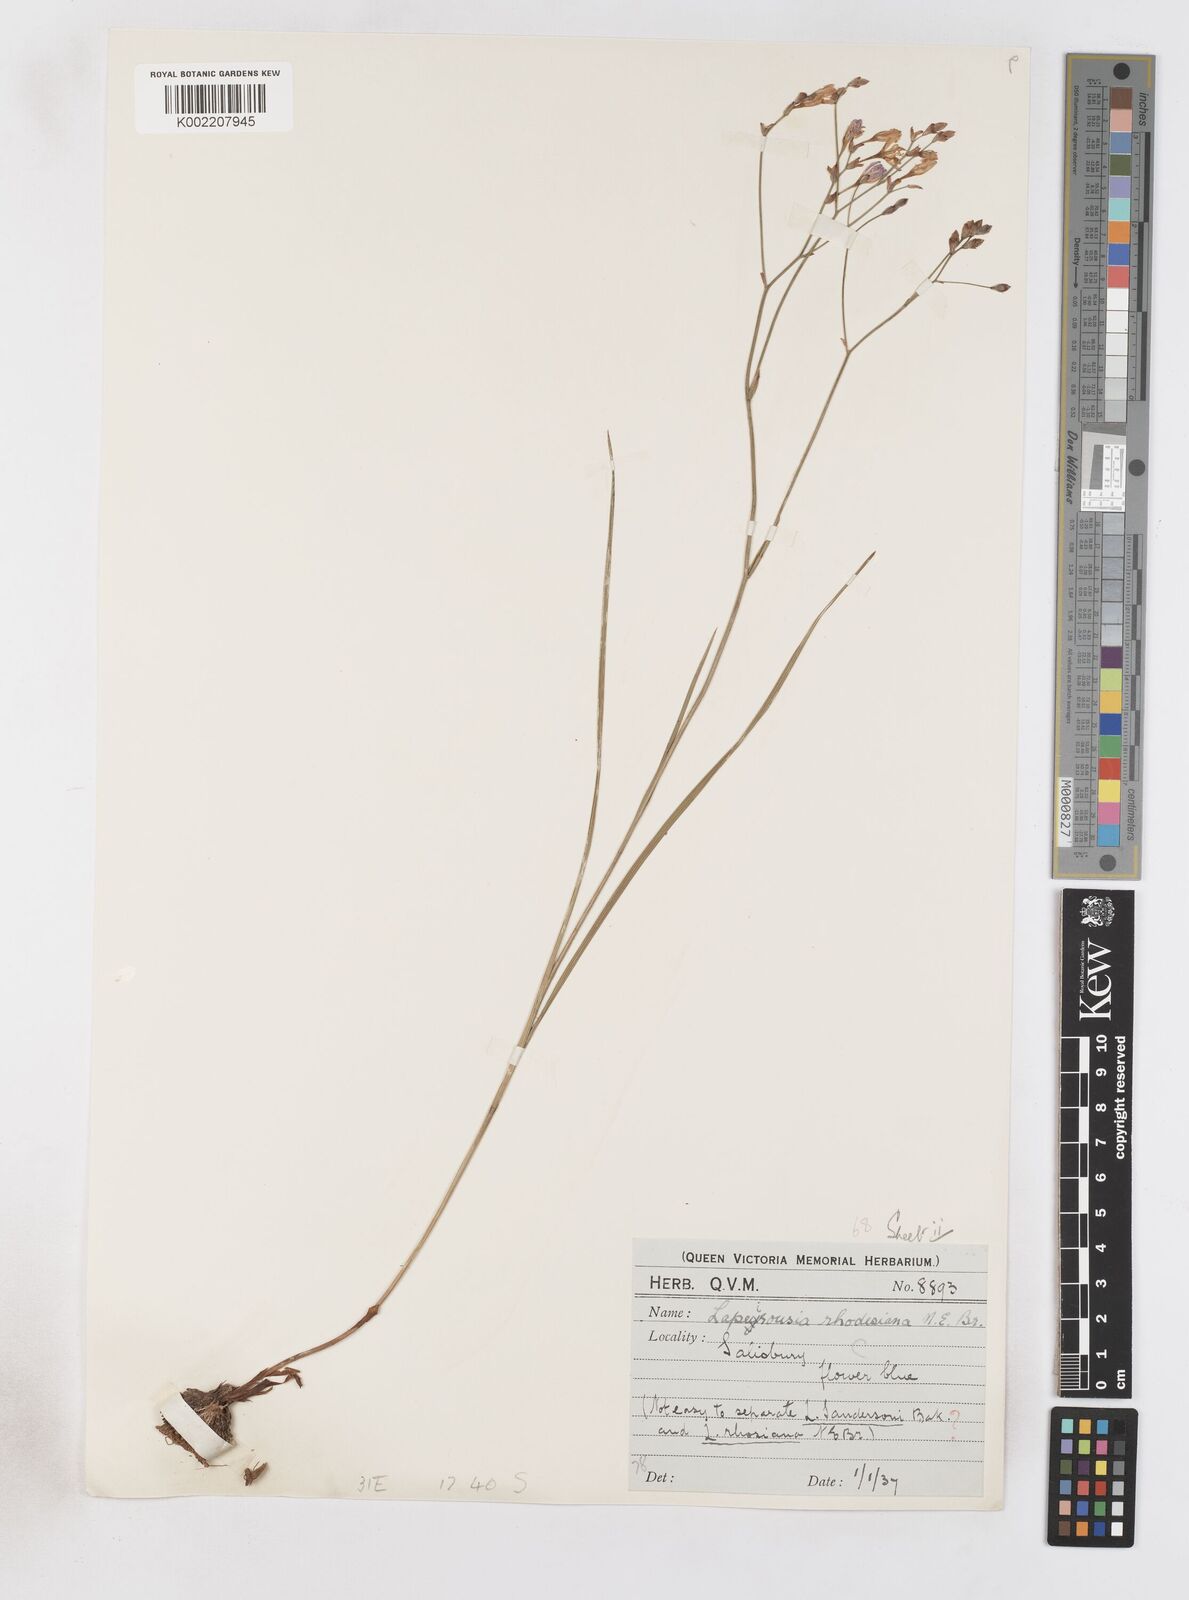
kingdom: Plantae
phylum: Tracheophyta
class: Liliopsida
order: Asparagales
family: Iridaceae
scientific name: Iridaceae
